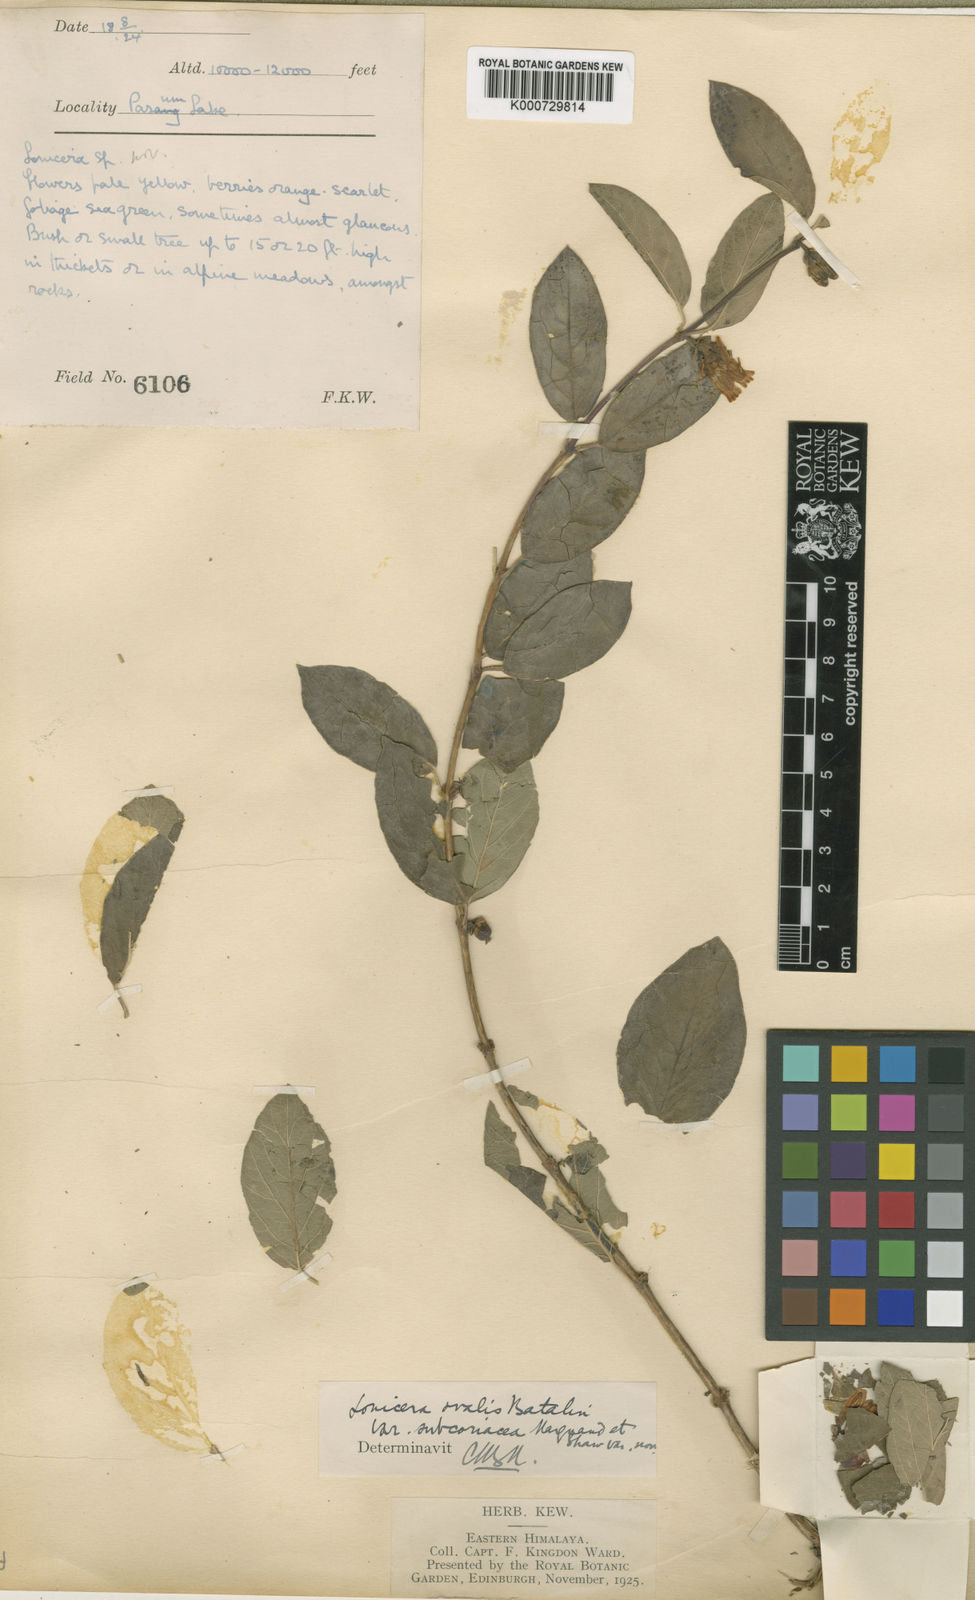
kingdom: Plantae
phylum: Tracheophyta
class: Magnoliopsida
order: Dipsacales
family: Caprifoliaceae
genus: Lonicera
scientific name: Lonicera trichosantha
